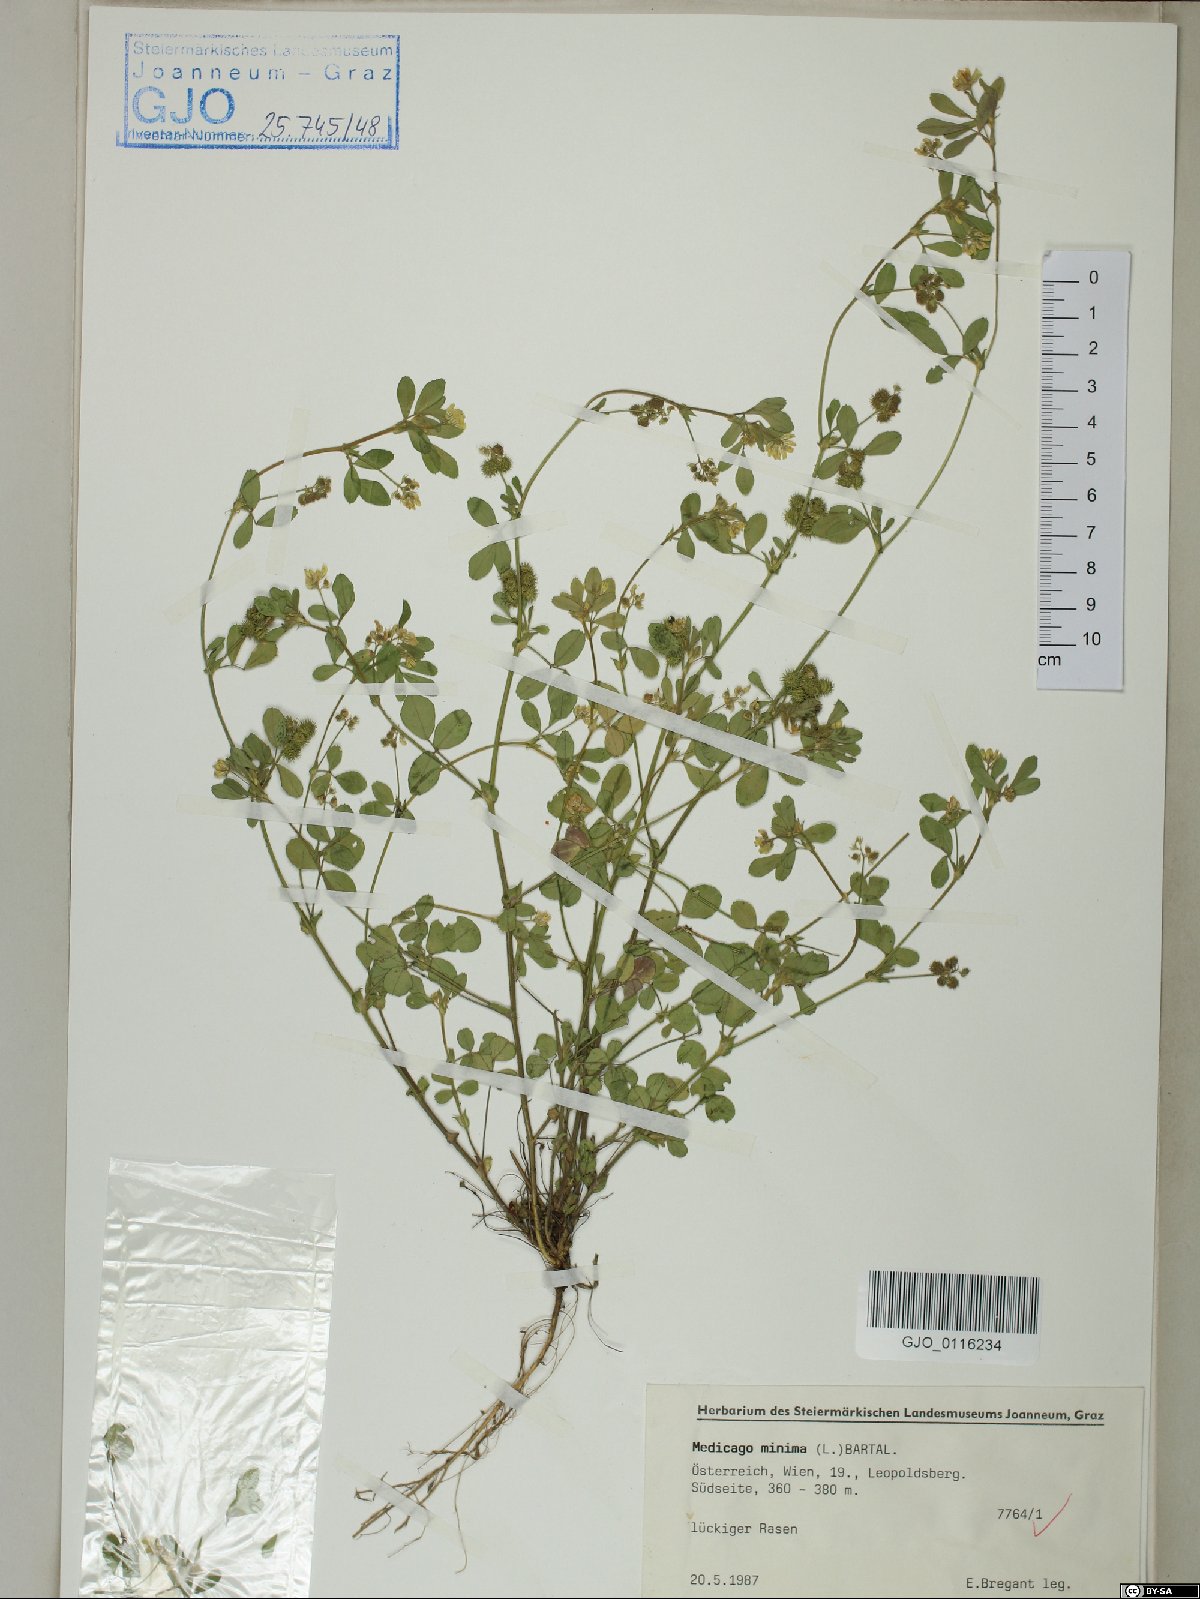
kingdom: Plantae
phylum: Tracheophyta
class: Magnoliopsida
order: Fabales
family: Fabaceae
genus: Medicago
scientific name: Medicago minima
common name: Little bur-clover
